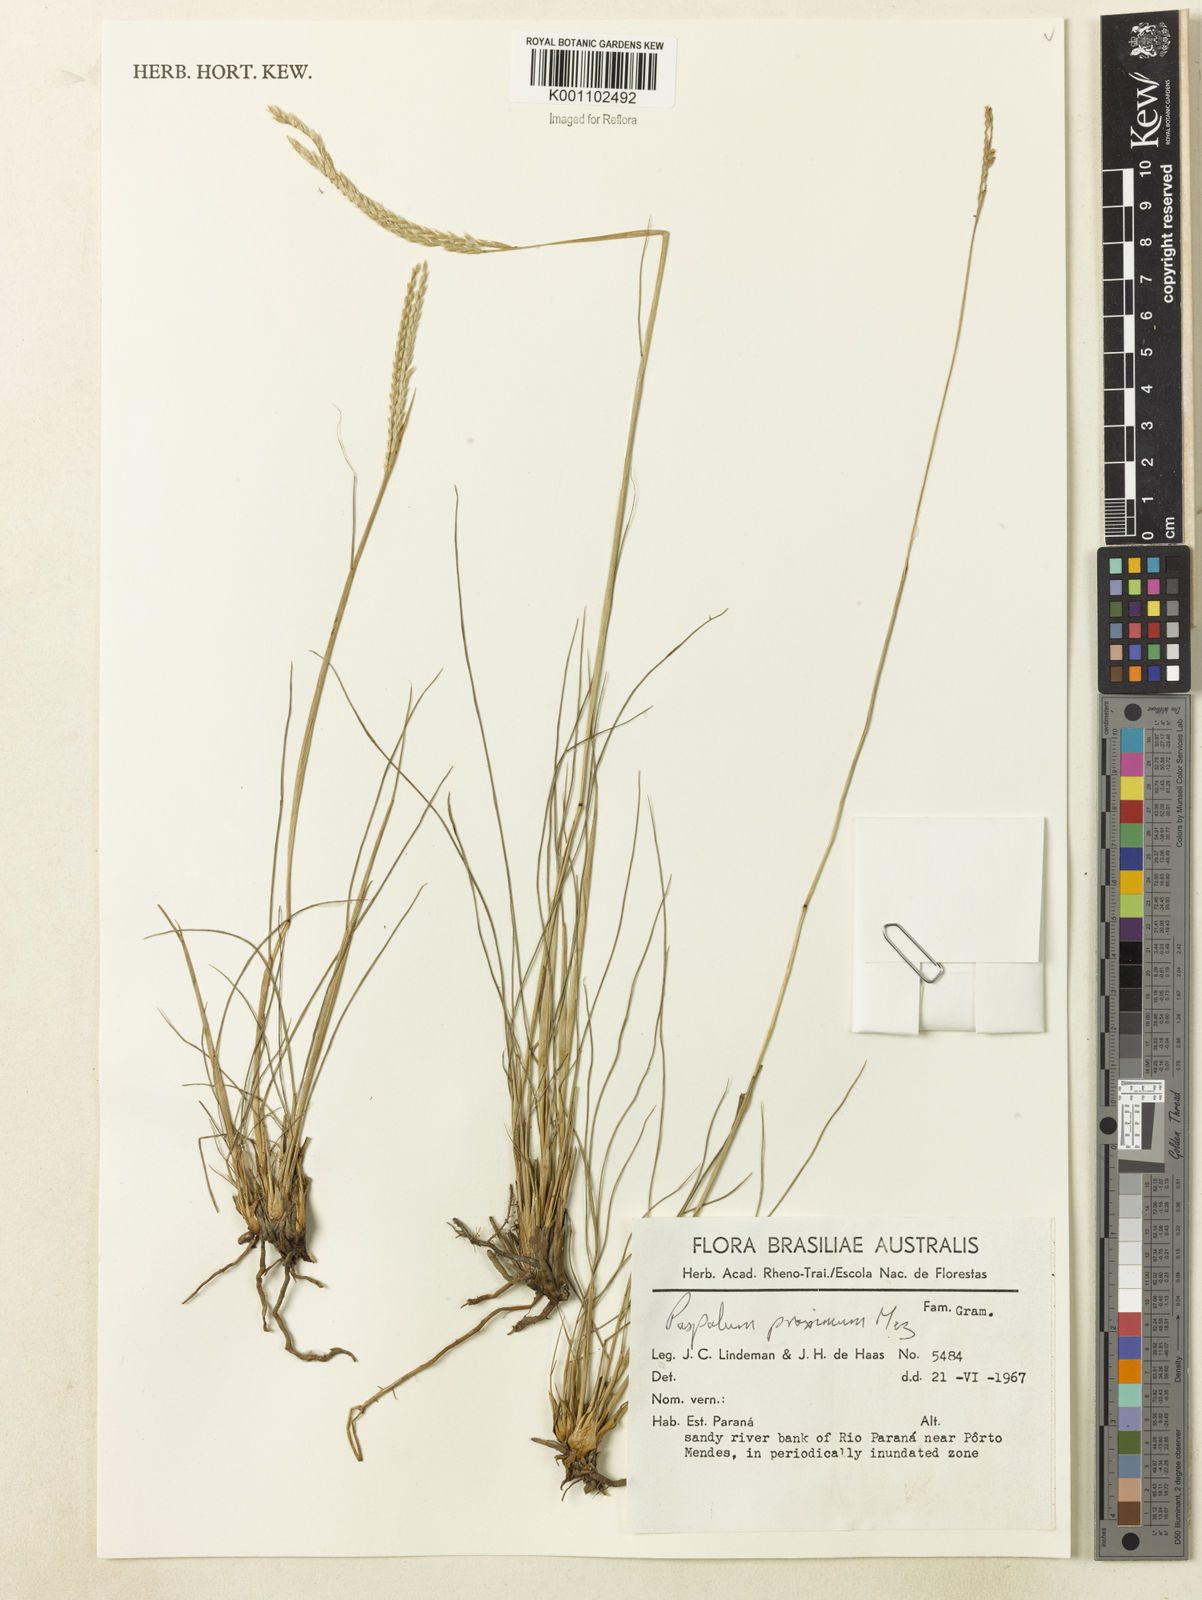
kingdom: Plantae
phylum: Tracheophyta
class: Liliopsida
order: Poales
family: Poaceae
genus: Paspalum
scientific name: Paspalum ellipticum
